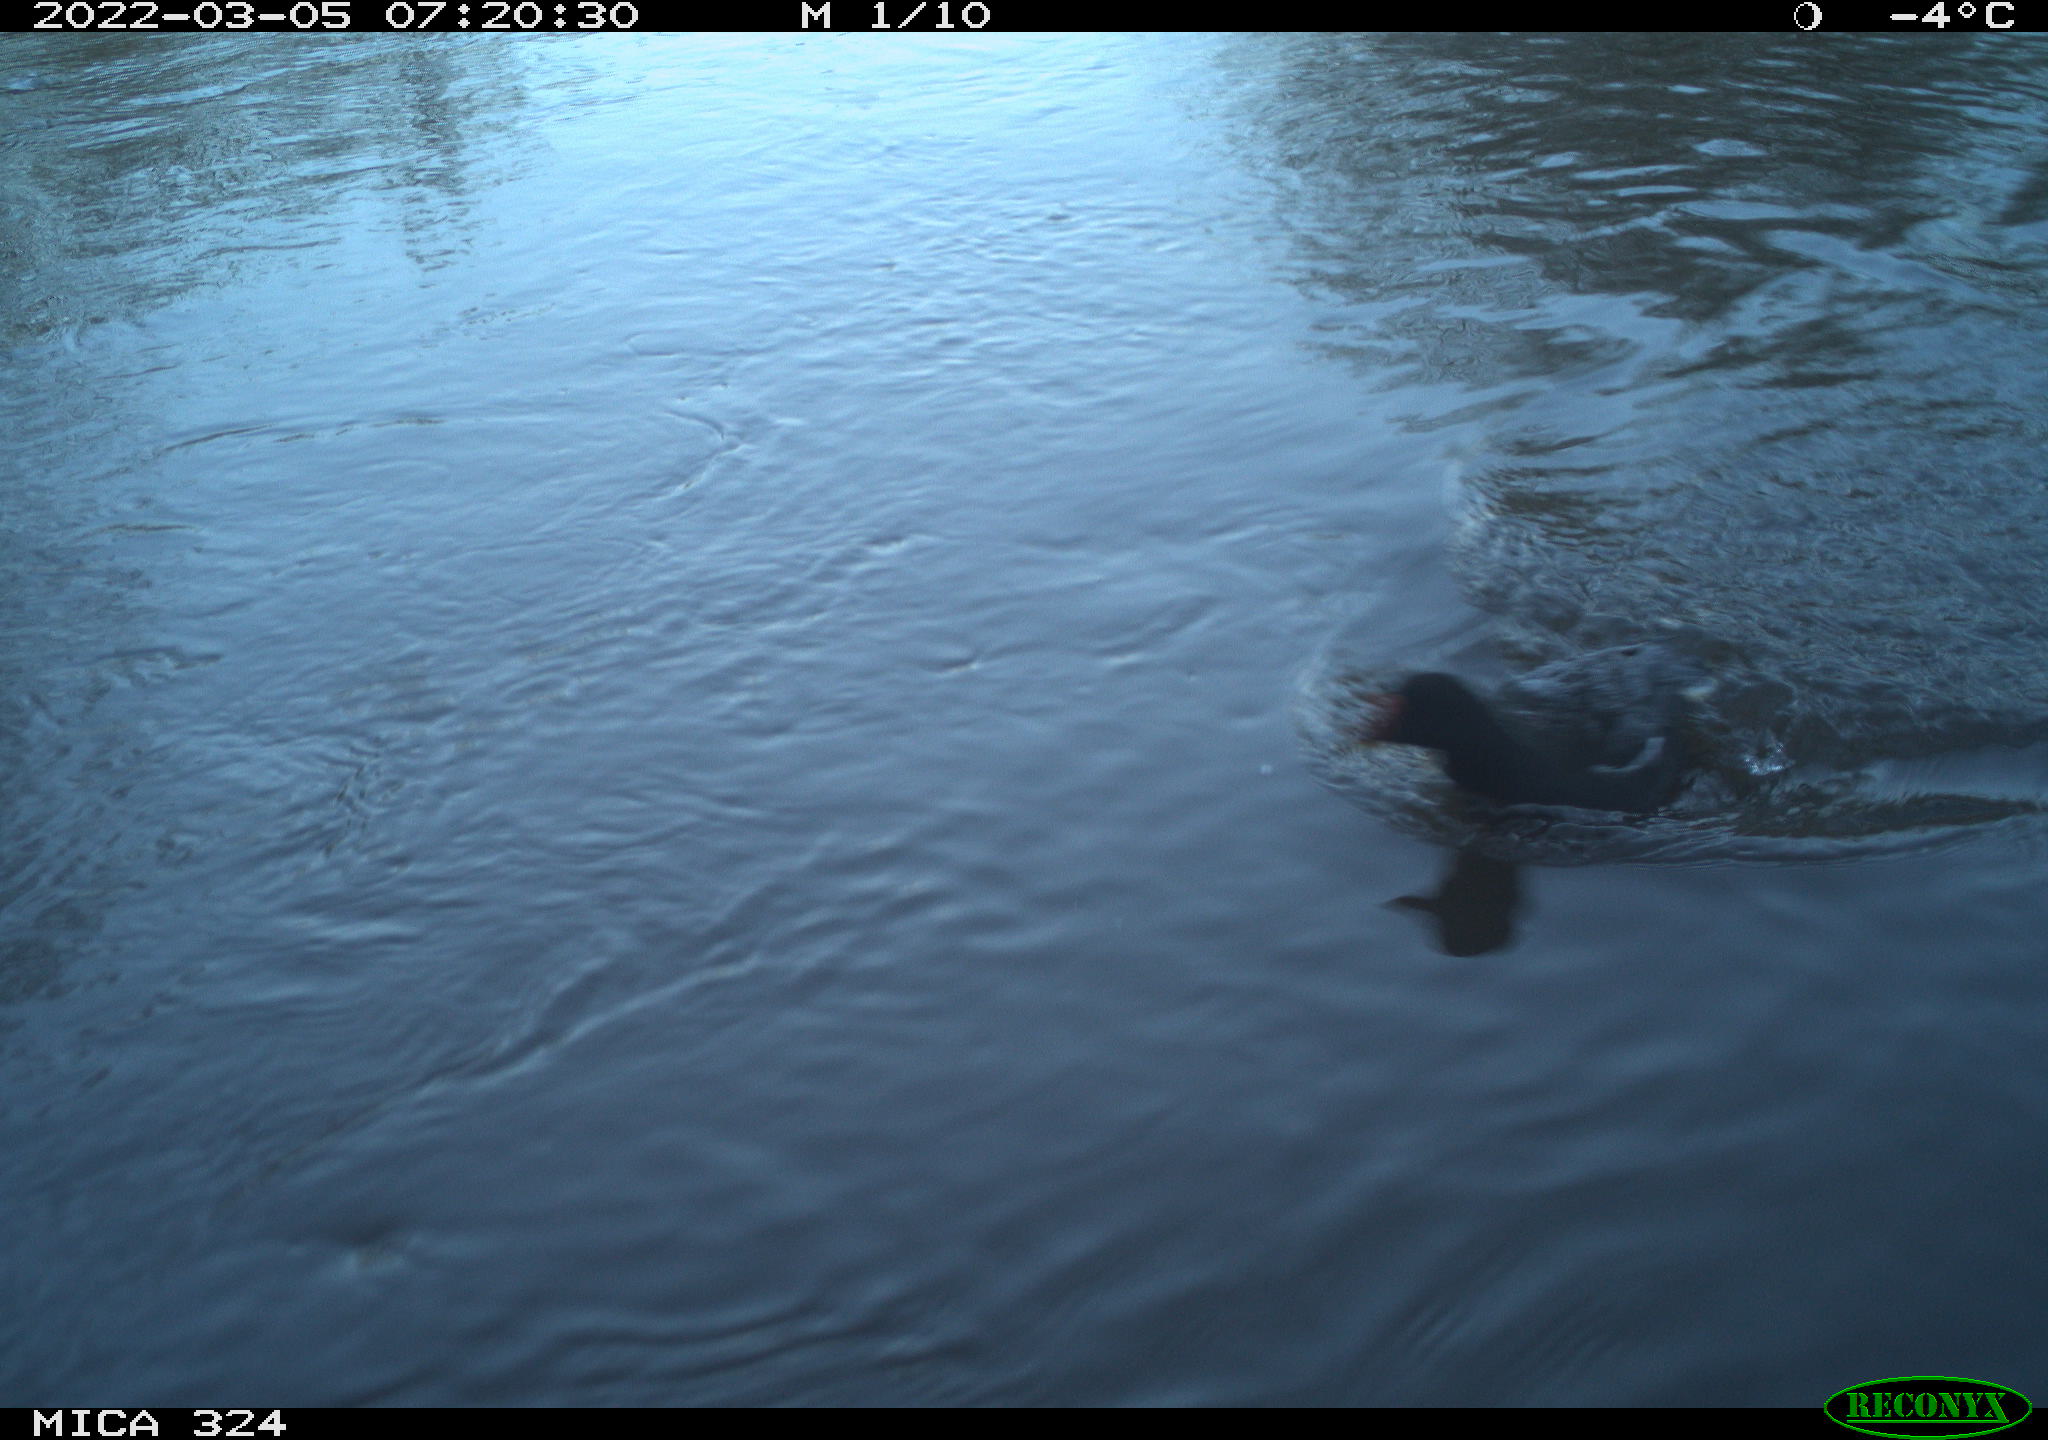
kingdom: Animalia
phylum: Chordata
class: Aves
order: Gruiformes
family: Rallidae
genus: Gallinula
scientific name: Gallinula chloropus
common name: Common moorhen
